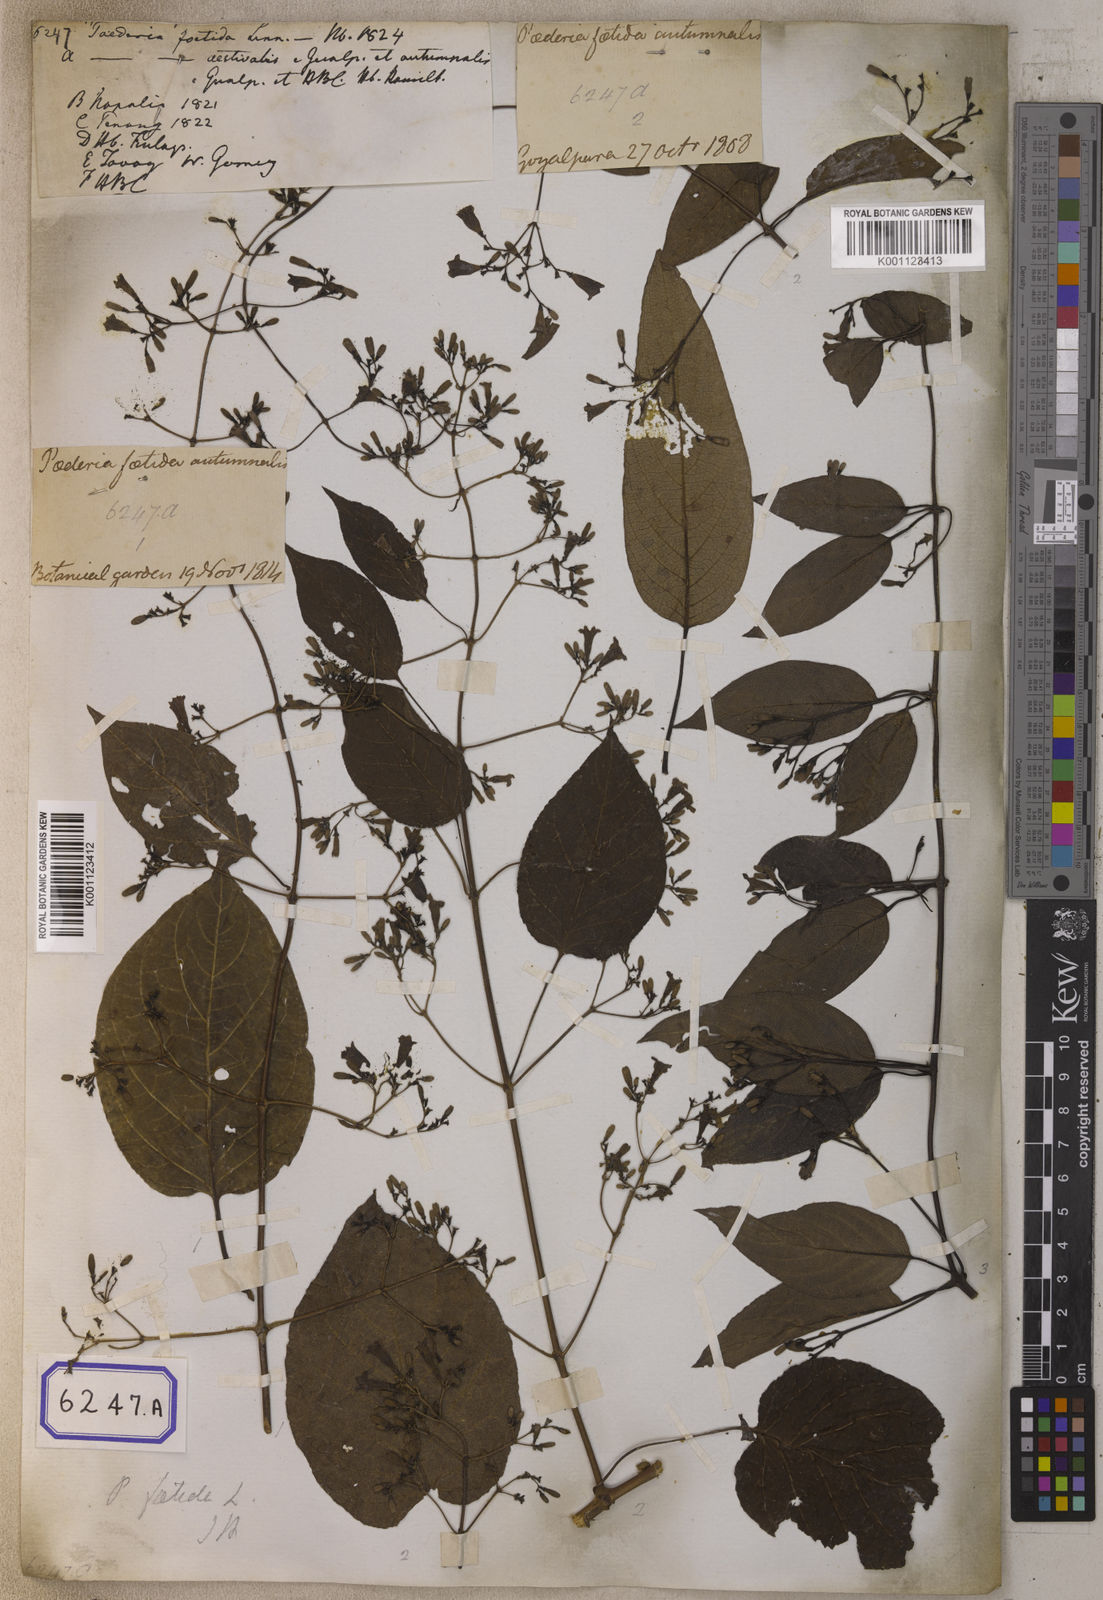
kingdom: Plantae
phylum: Tracheophyta
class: Magnoliopsida
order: Gentianales
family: Rubiaceae
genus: Paederia
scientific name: Paederia
